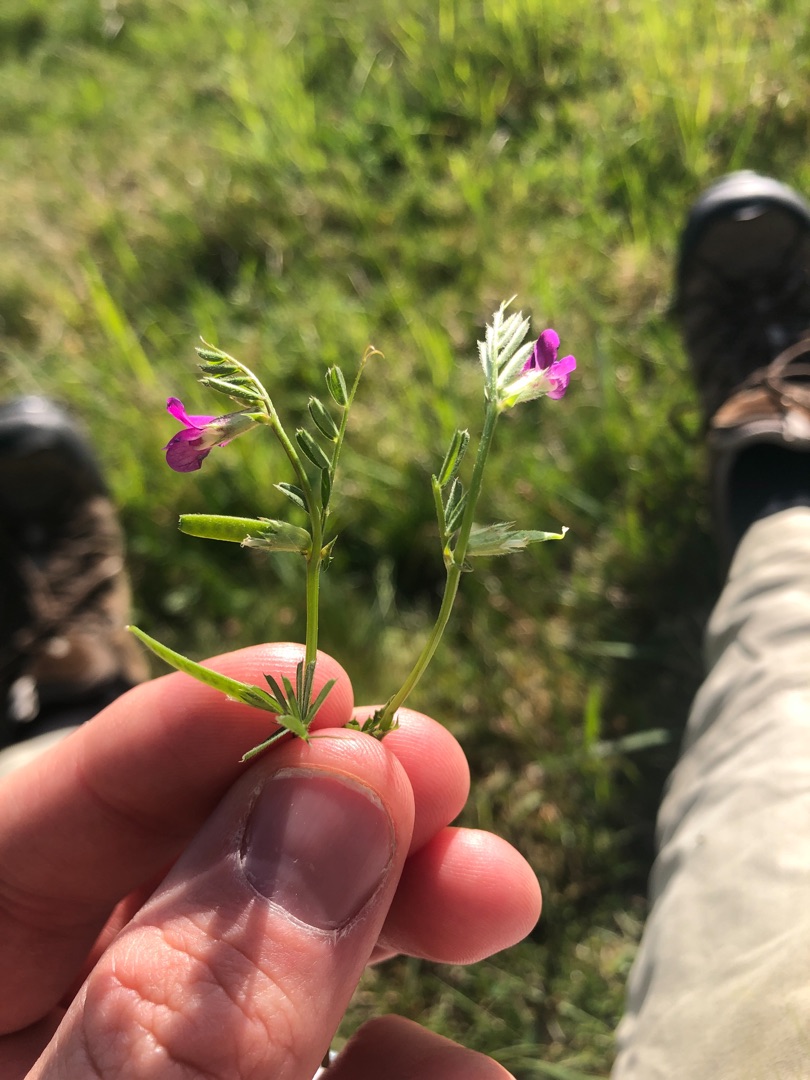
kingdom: Plantae
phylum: Tracheophyta
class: Magnoliopsida
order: Fabales
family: Fabaceae
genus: Vicia
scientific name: Vicia sativa
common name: Smalbladet vikke
